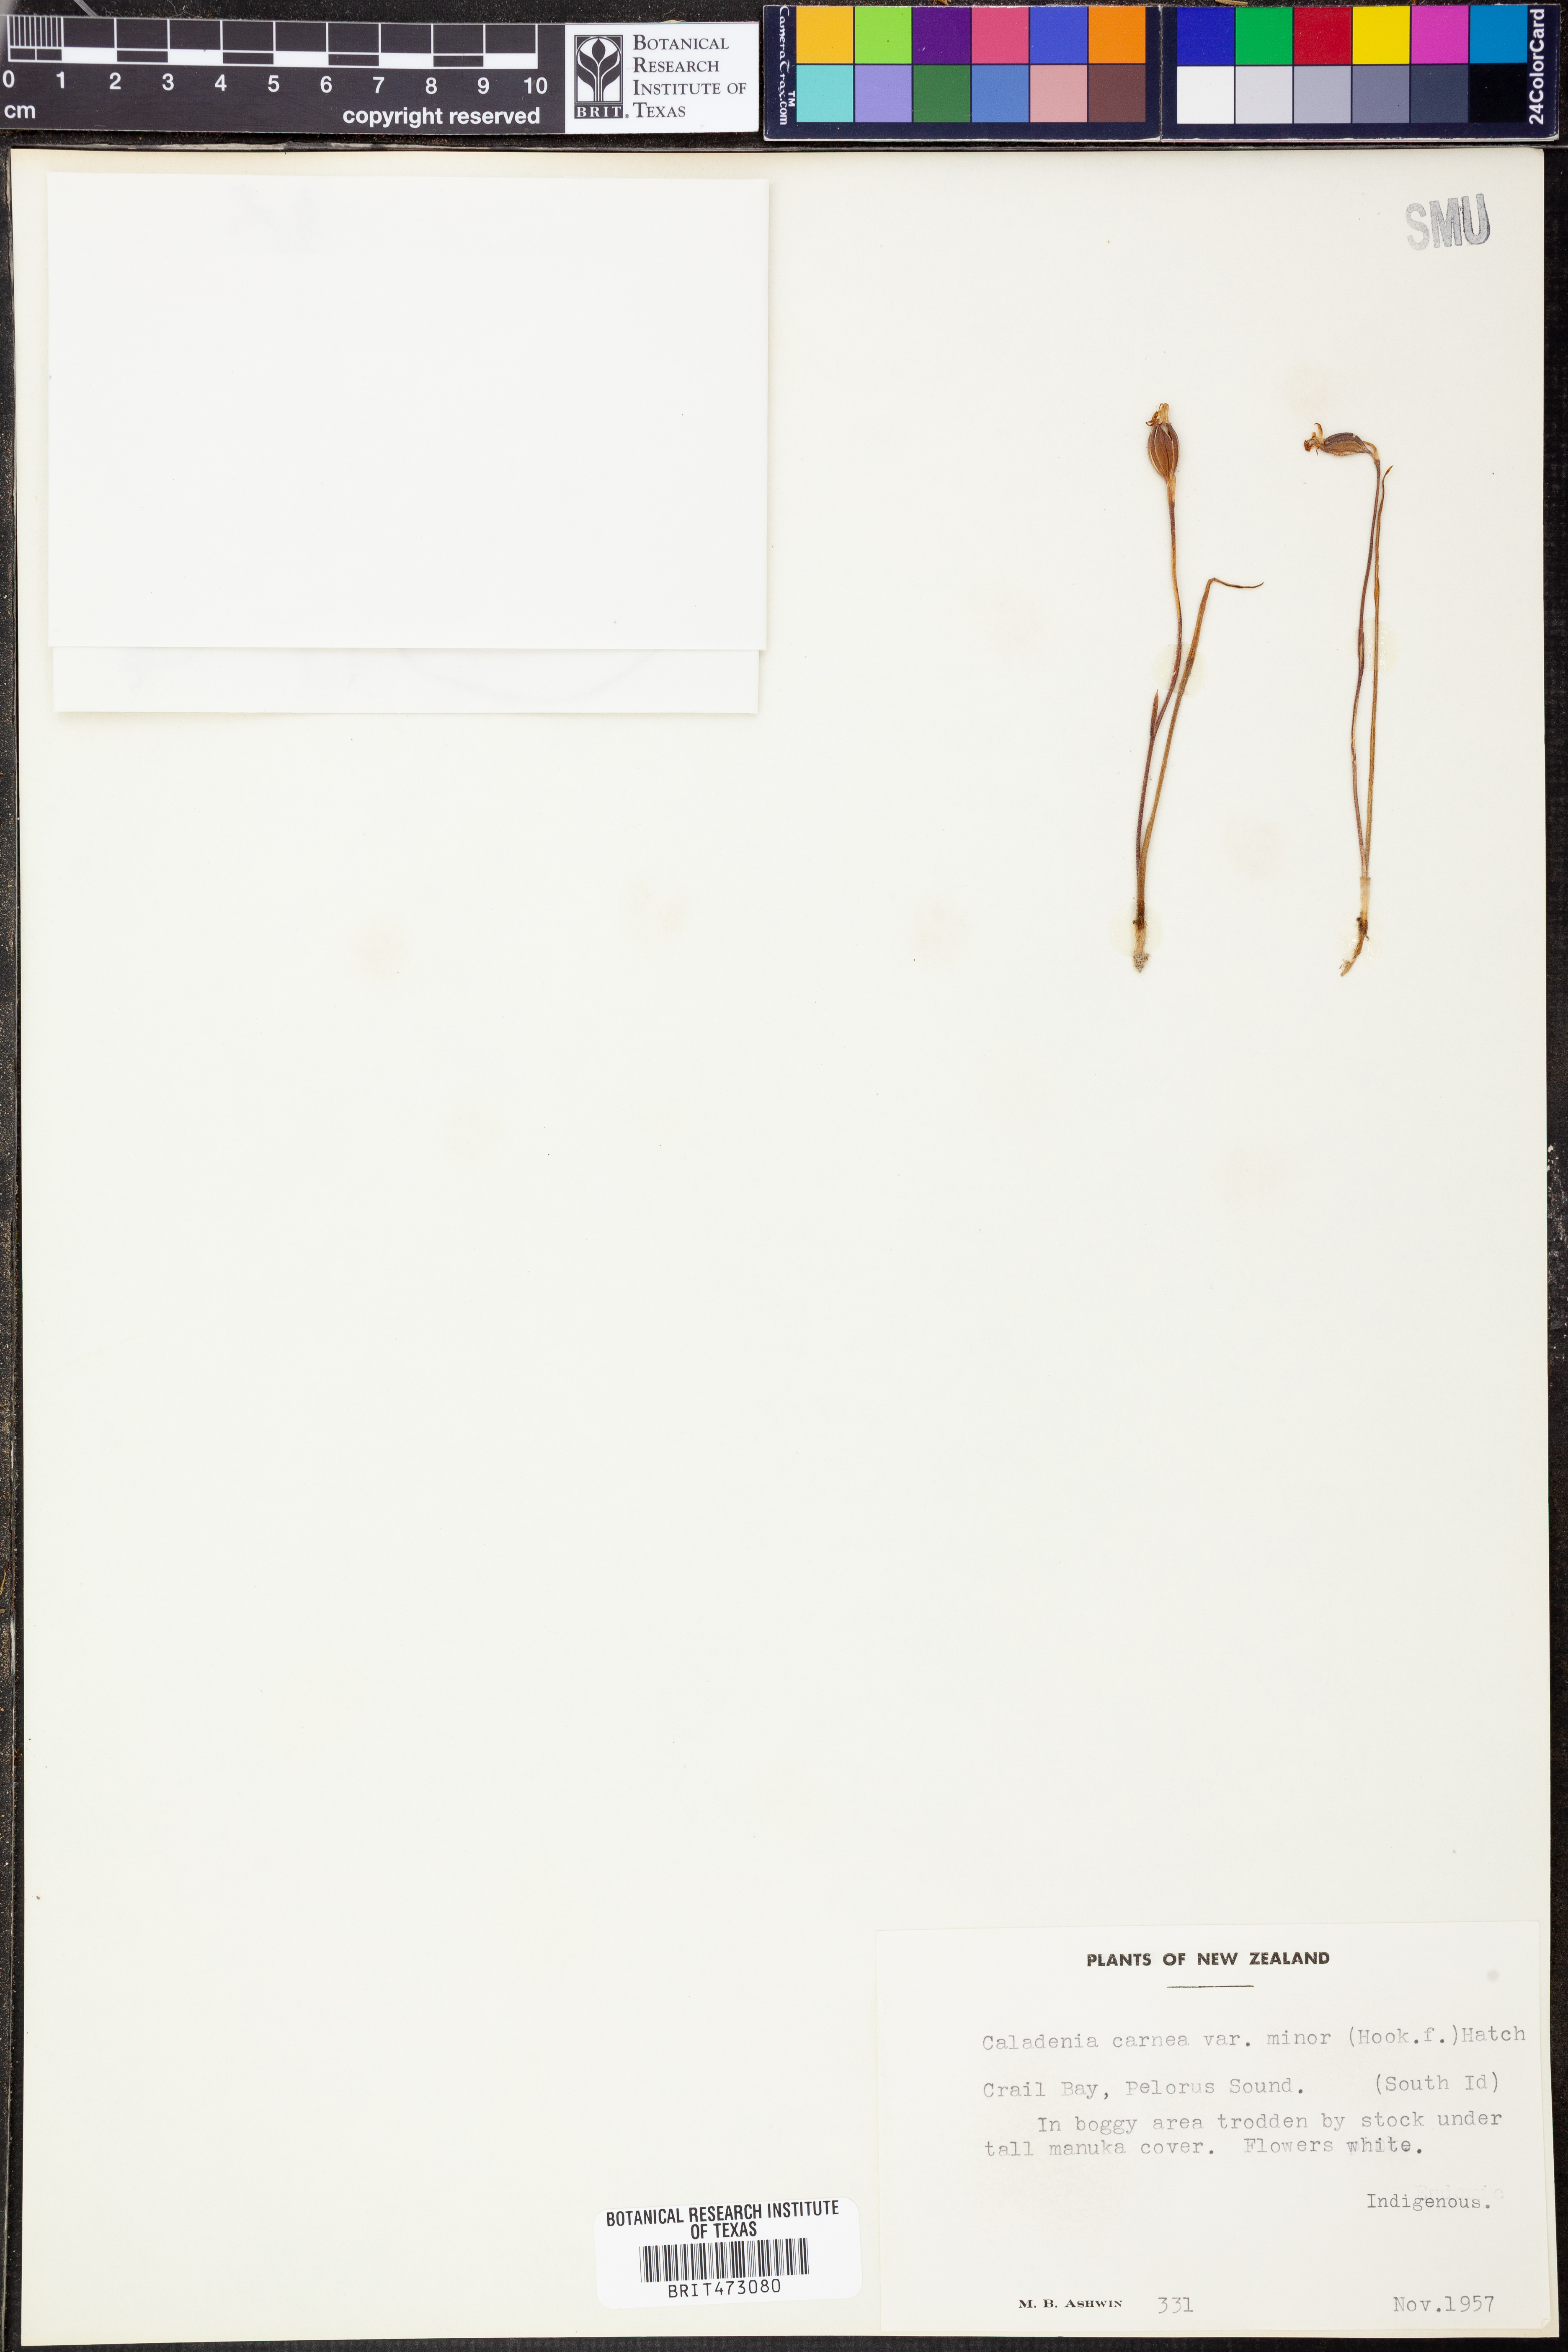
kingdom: Plantae
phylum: Tracheophyta
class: Liliopsida
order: Asparagales
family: Orchidaceae
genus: Caladenia
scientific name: Caladenia carnea
